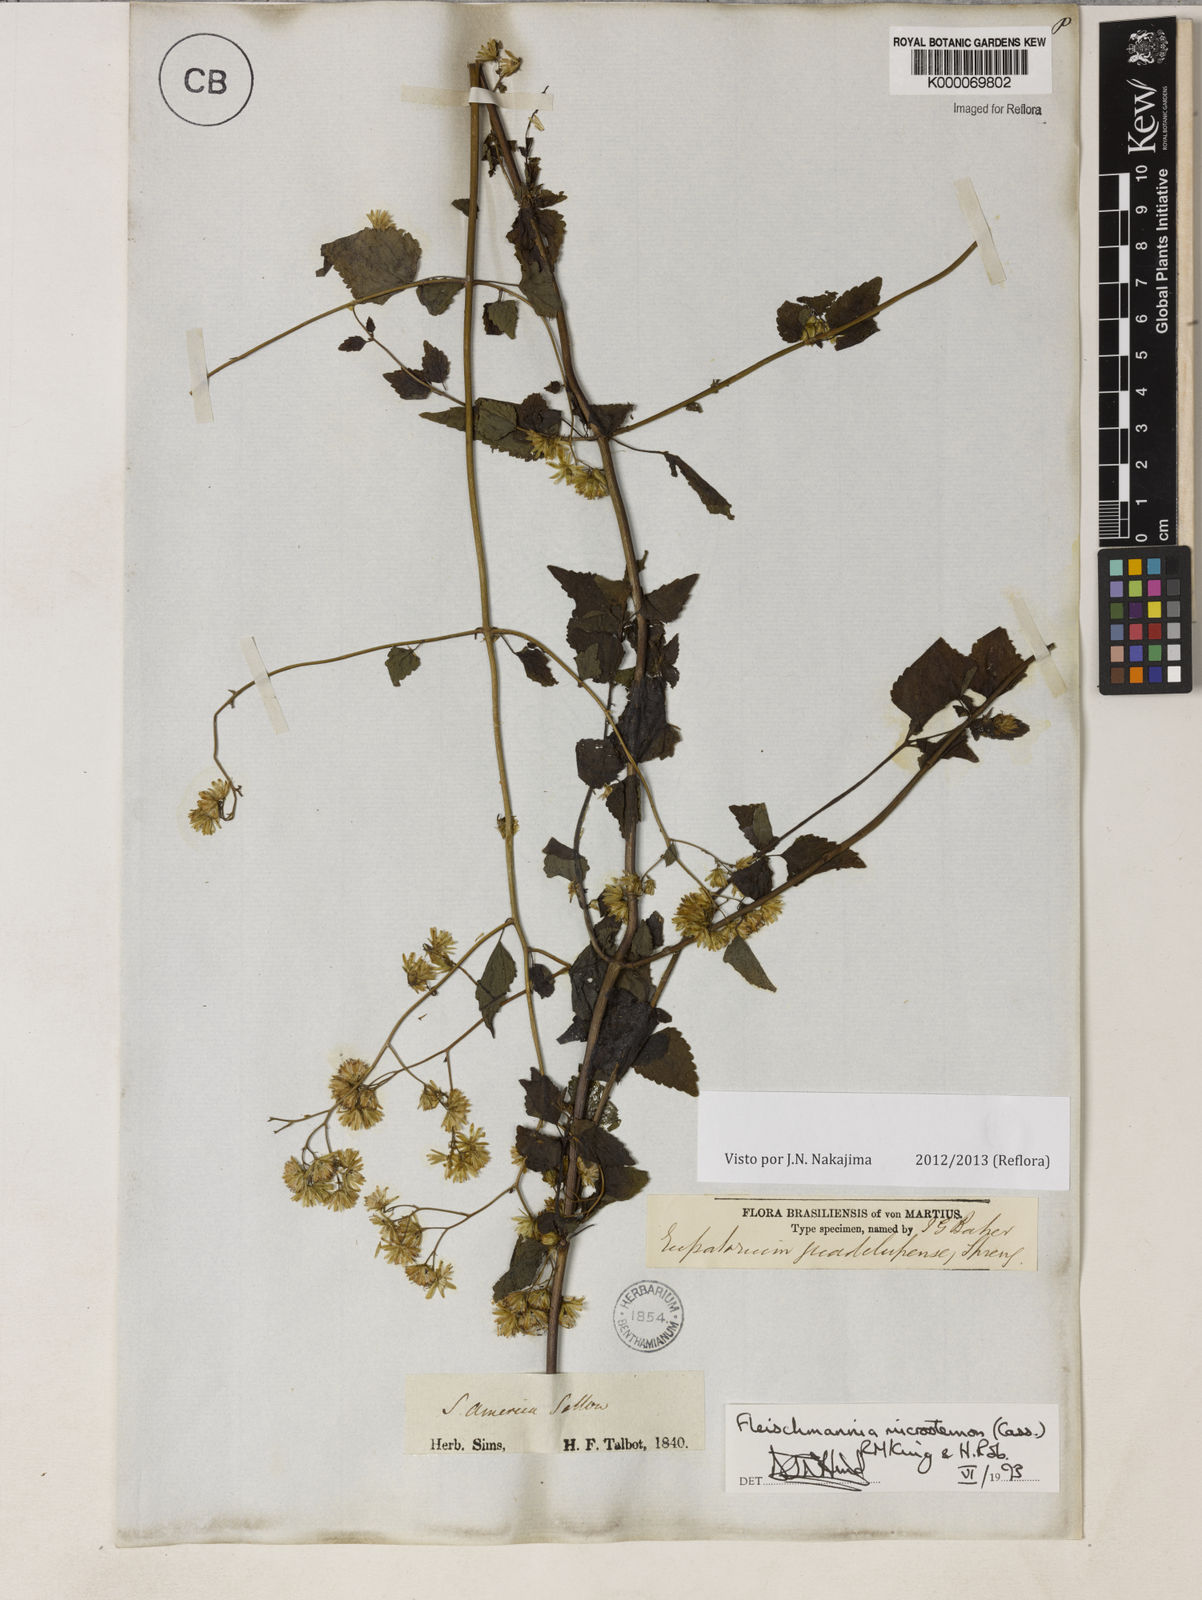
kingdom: Plantae
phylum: Tracheophyta
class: Magnoliopsida
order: Asterales
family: Asteraceae
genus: Fleischmannia
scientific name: Fleischmannia microstemon
